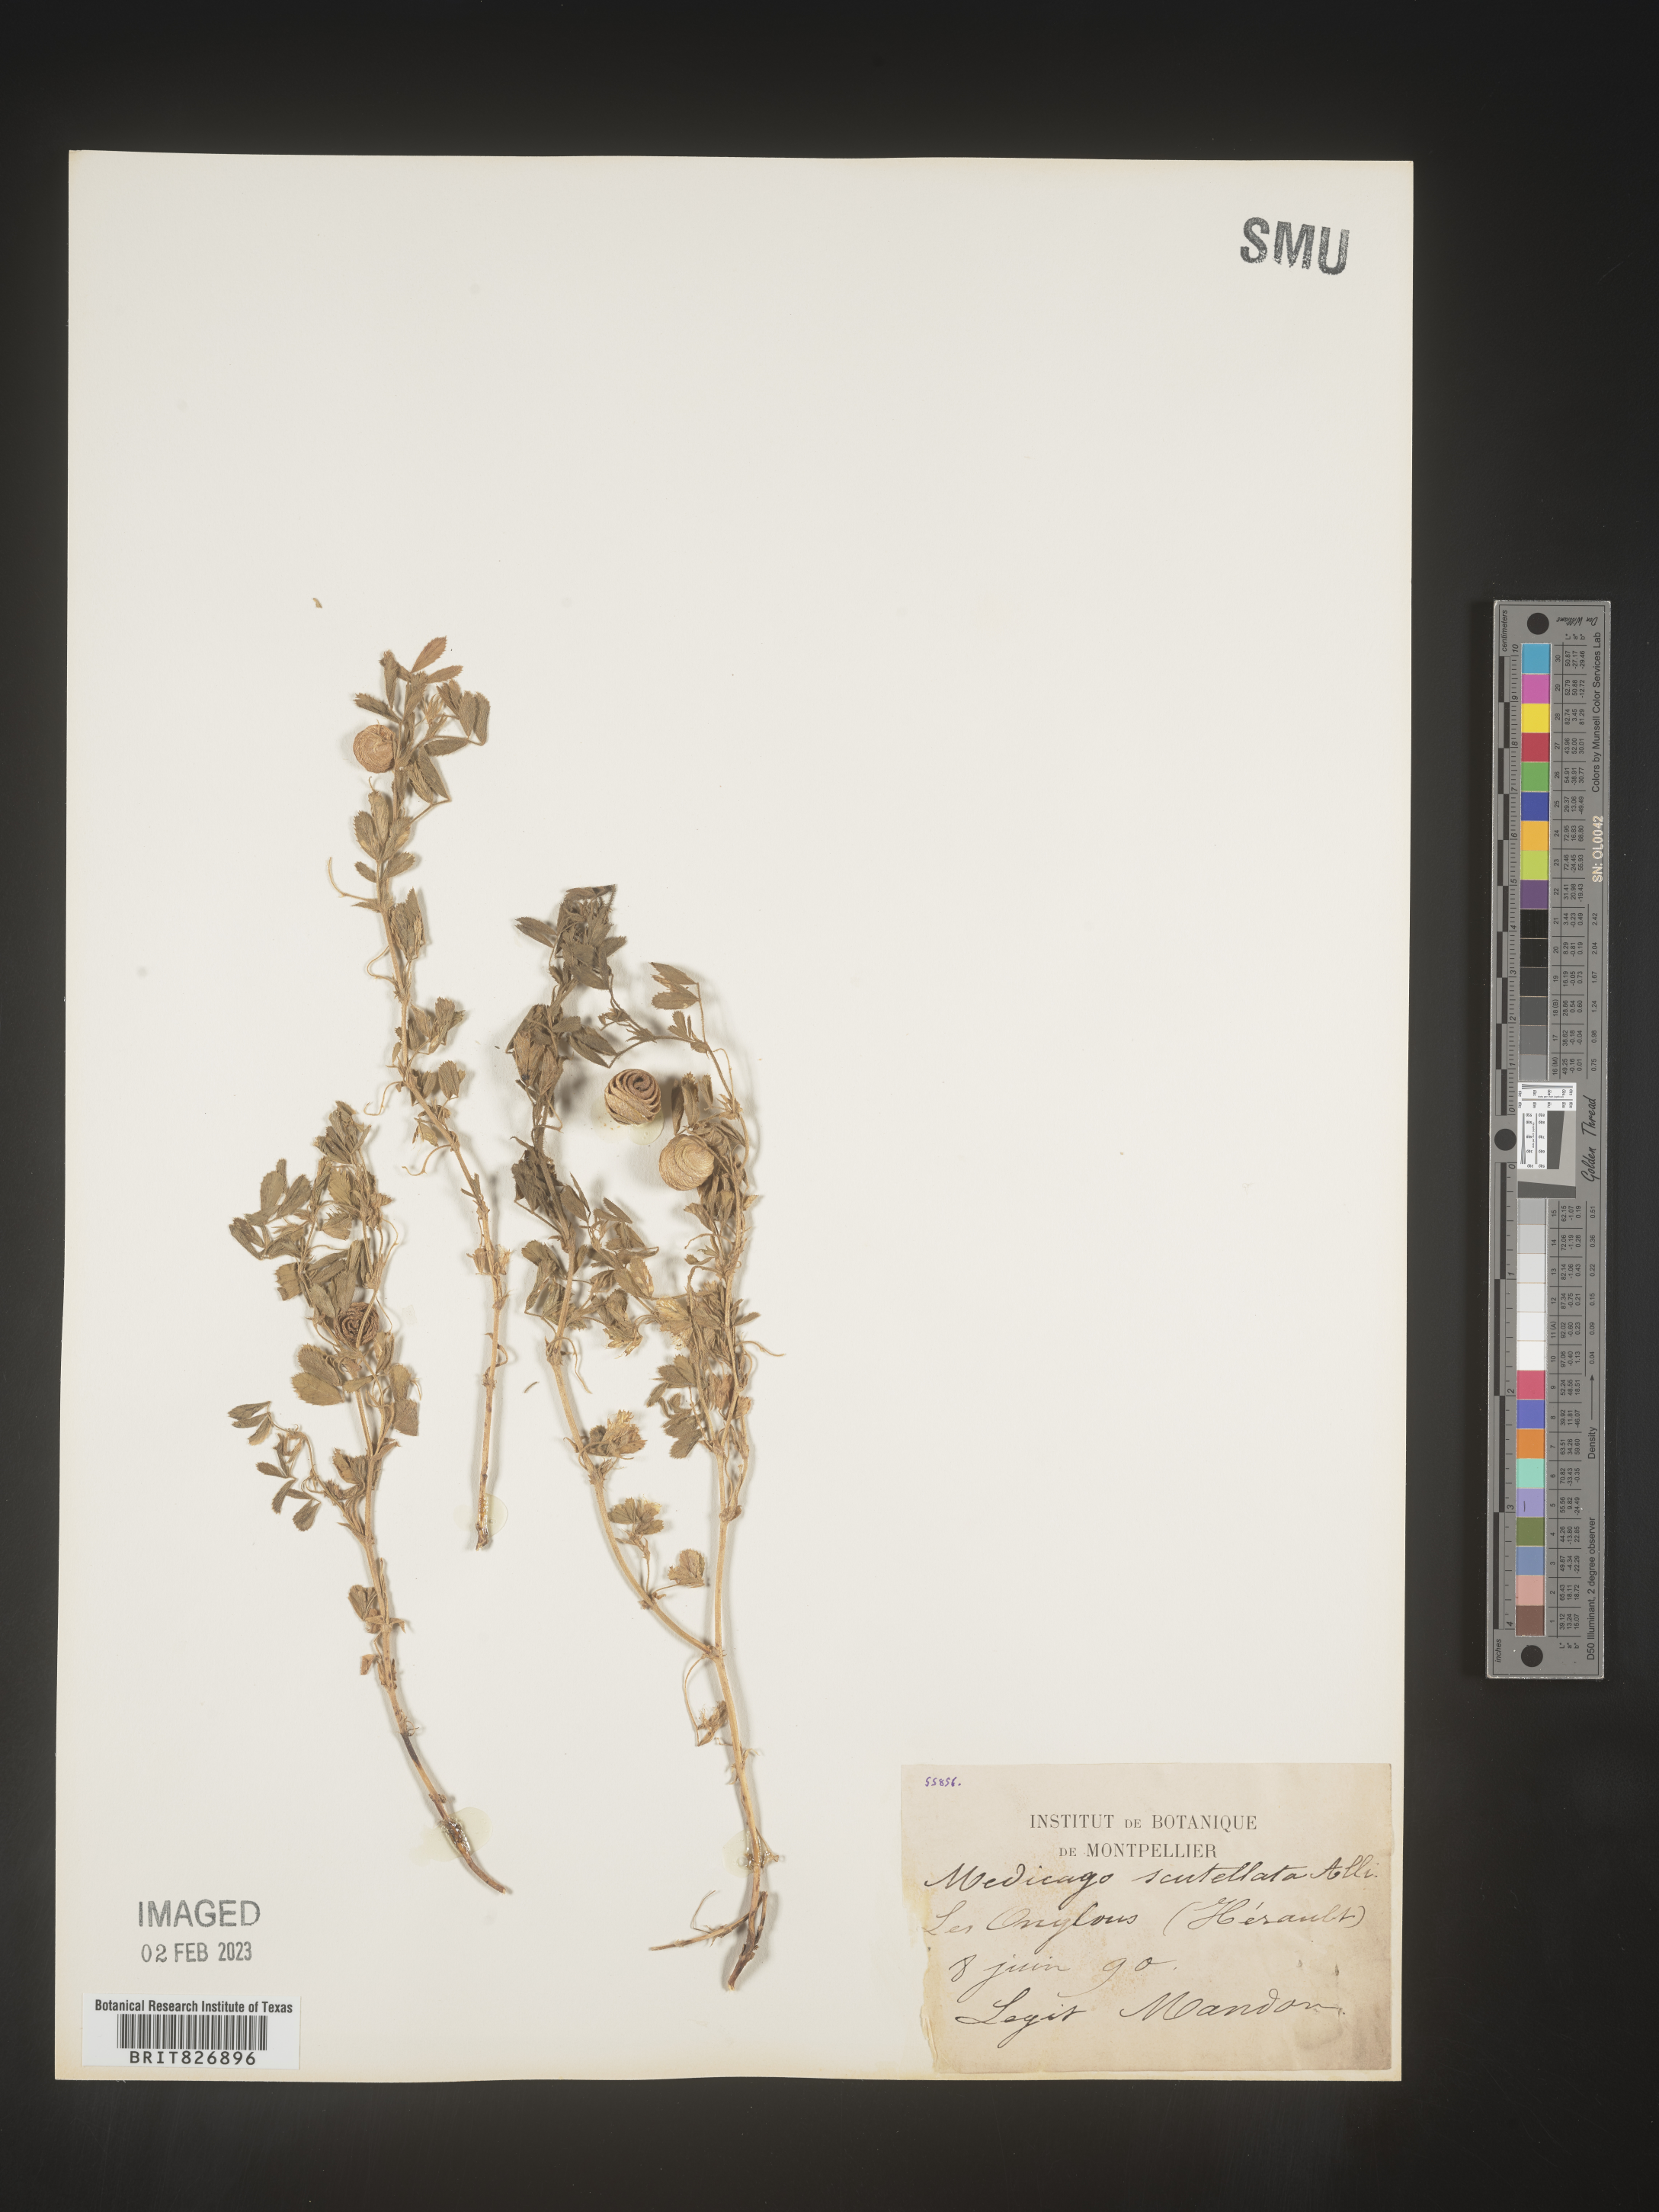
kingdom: Plantae
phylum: Tracheophyta
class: Magnoliopsida
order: Fabales
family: Fabaceae
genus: Medicago
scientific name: Medicago
